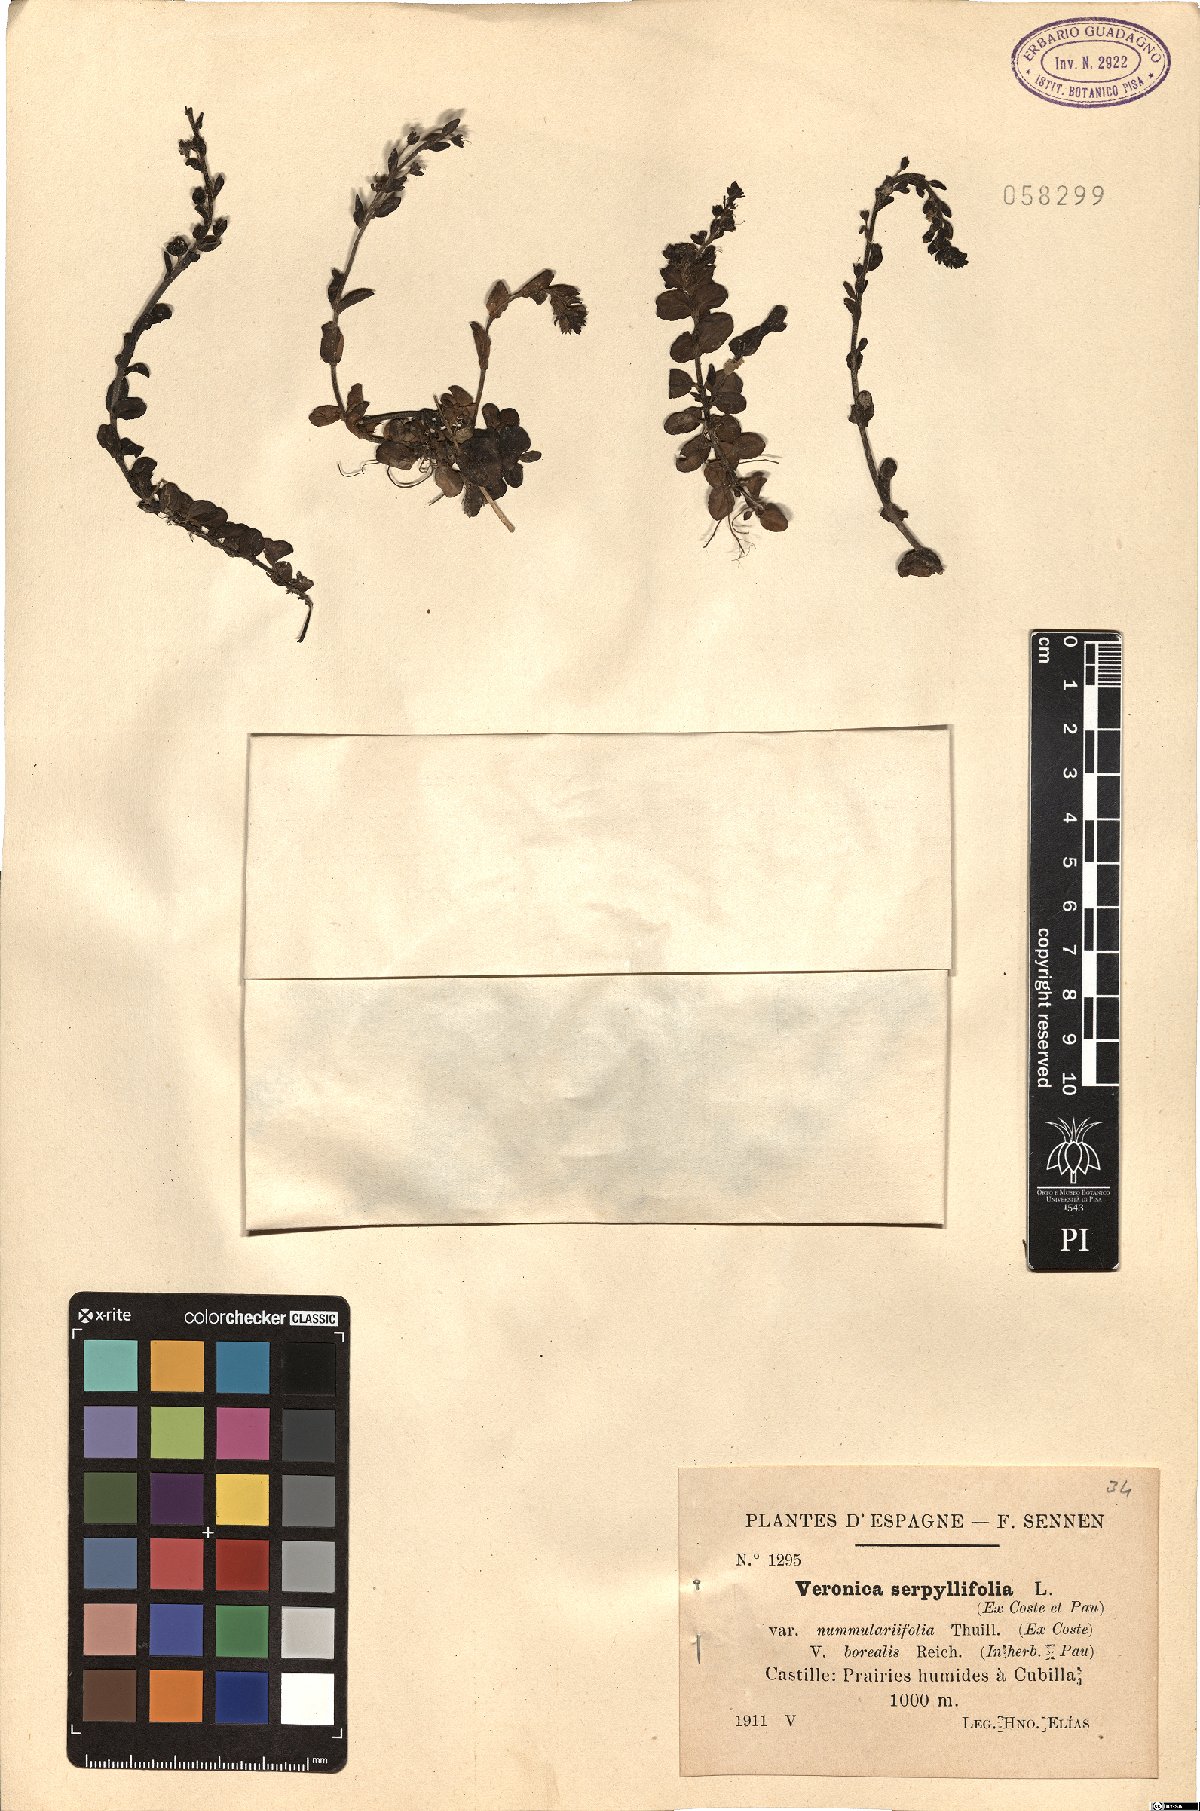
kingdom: Plantae
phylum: Tracheophyta
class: Magnoliopsida
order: Lamiales
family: Plantaginaceae
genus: Veronica
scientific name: Veronica serpyllifolia
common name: Thyme-leaved speedwell
